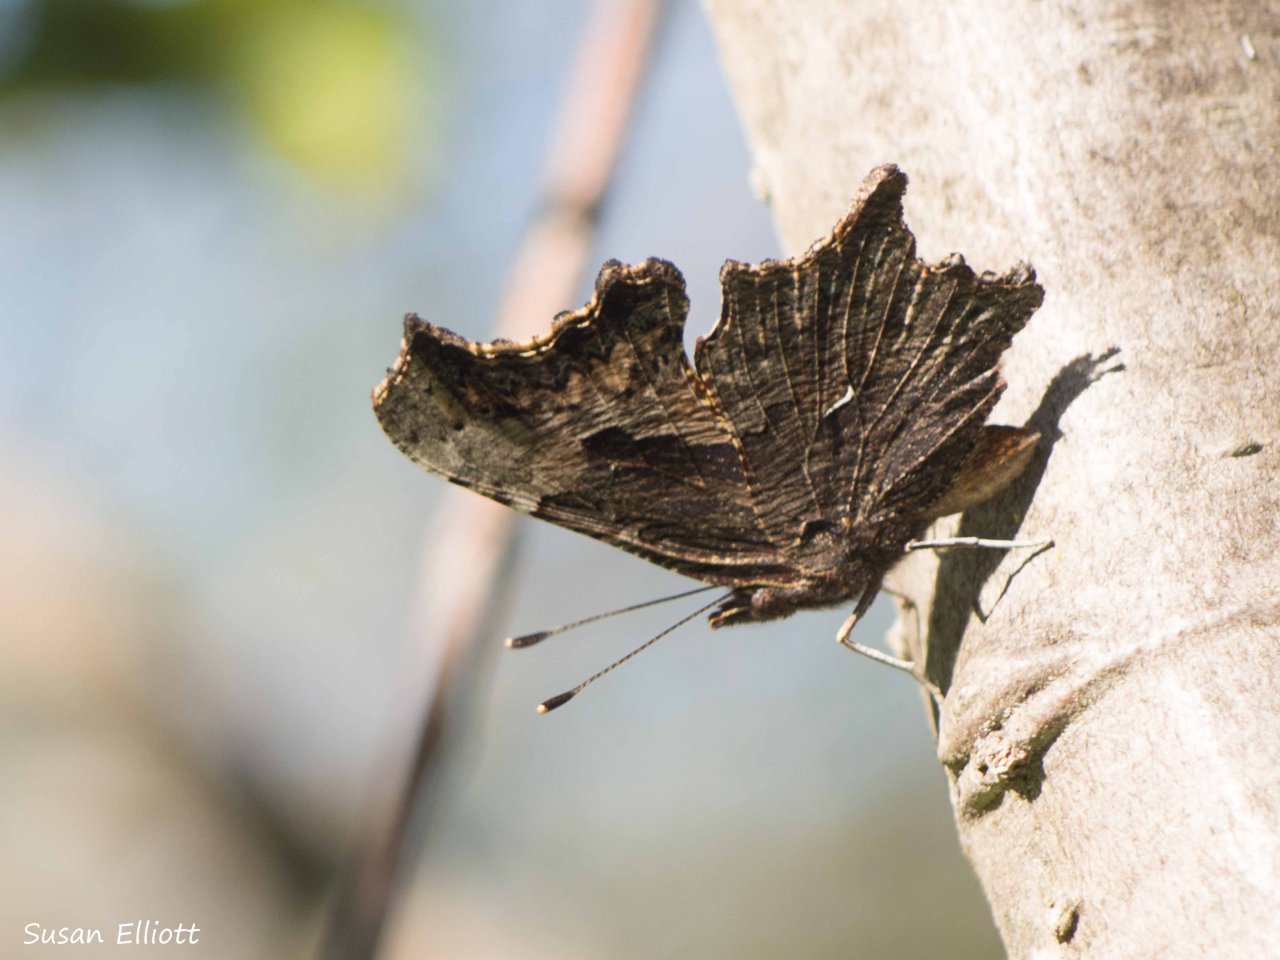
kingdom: Animalia
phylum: Arthropoda
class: Insecta
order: Lepidoptera
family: Nymphalidae
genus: Polygonia
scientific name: Polygonia progne
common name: Gray Comma
